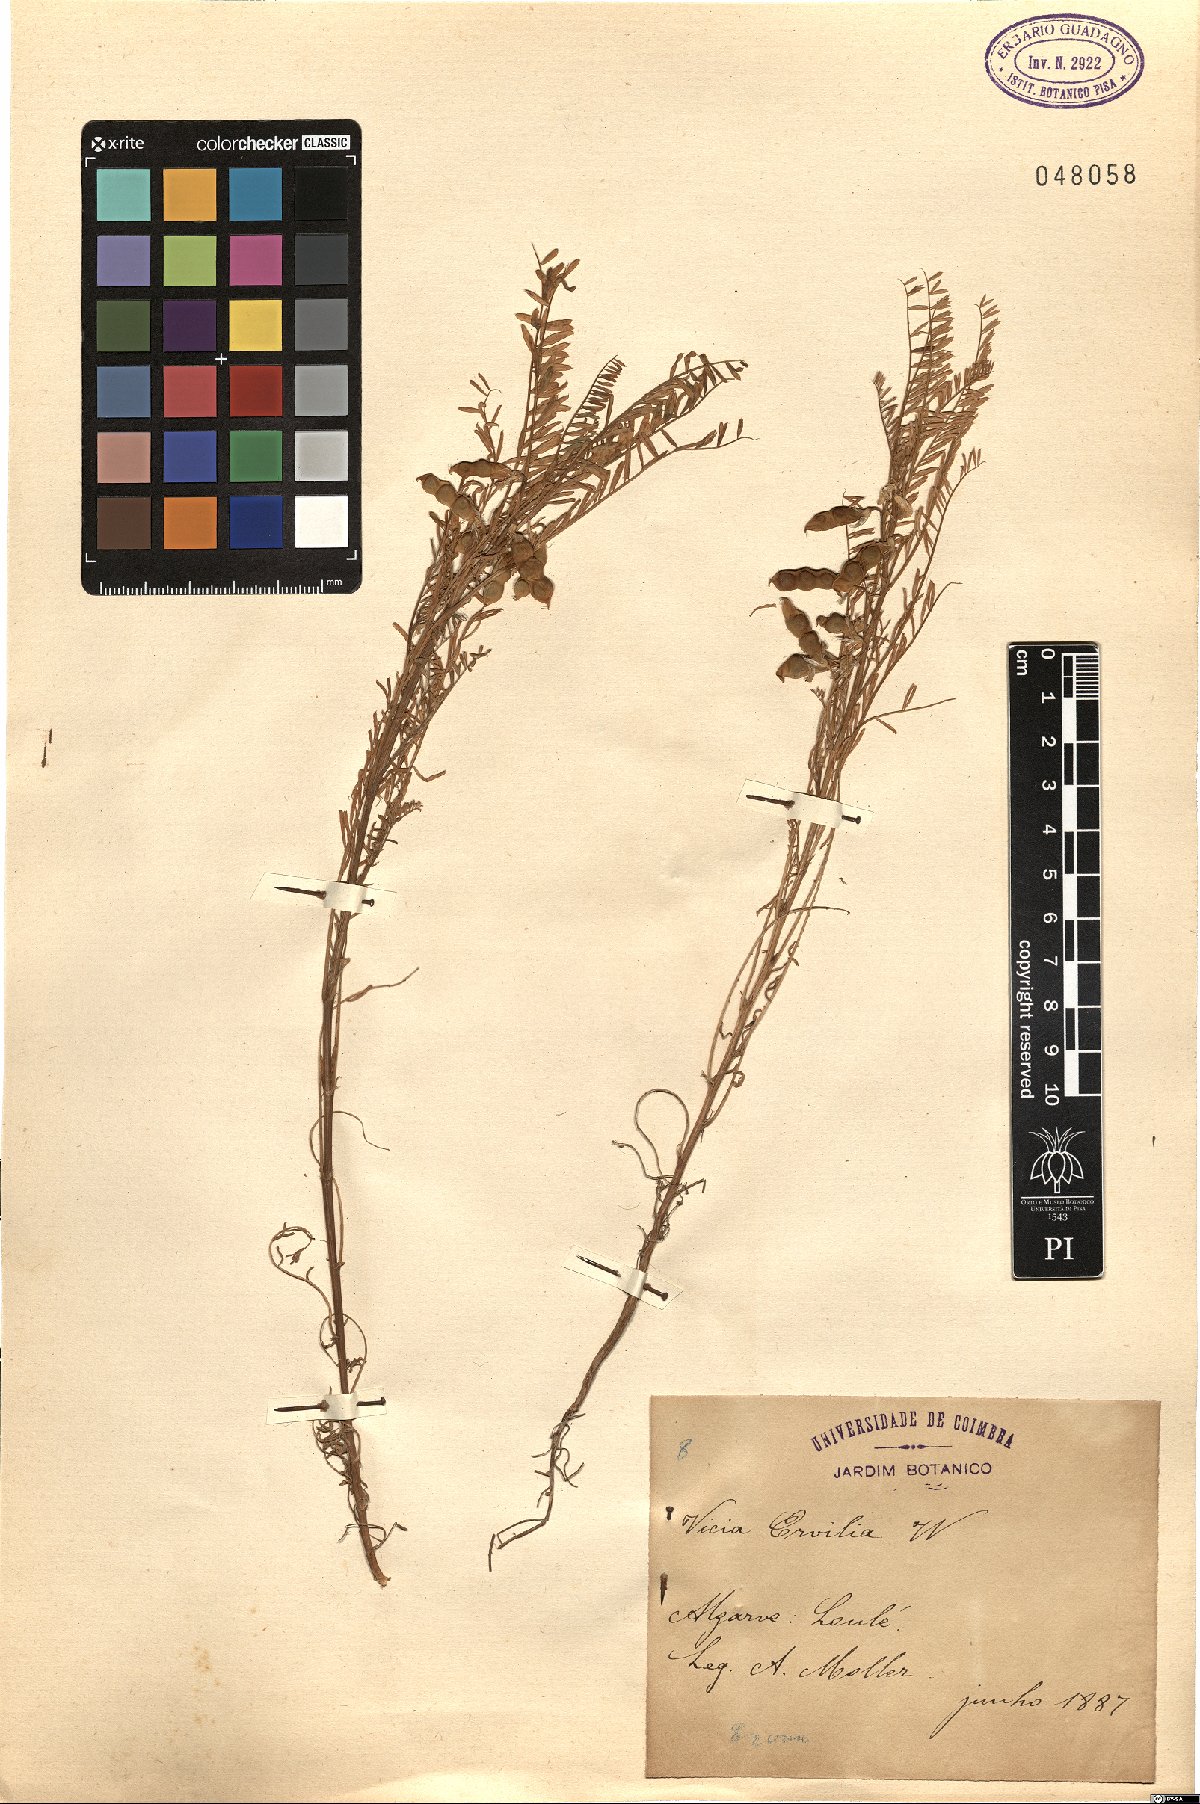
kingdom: Plantae
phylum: Tracheophyta
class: Magnoliopsida
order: Fabales
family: Fabaceae
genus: Vicia
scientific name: Vicia ervilia
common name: Bitter vetch
